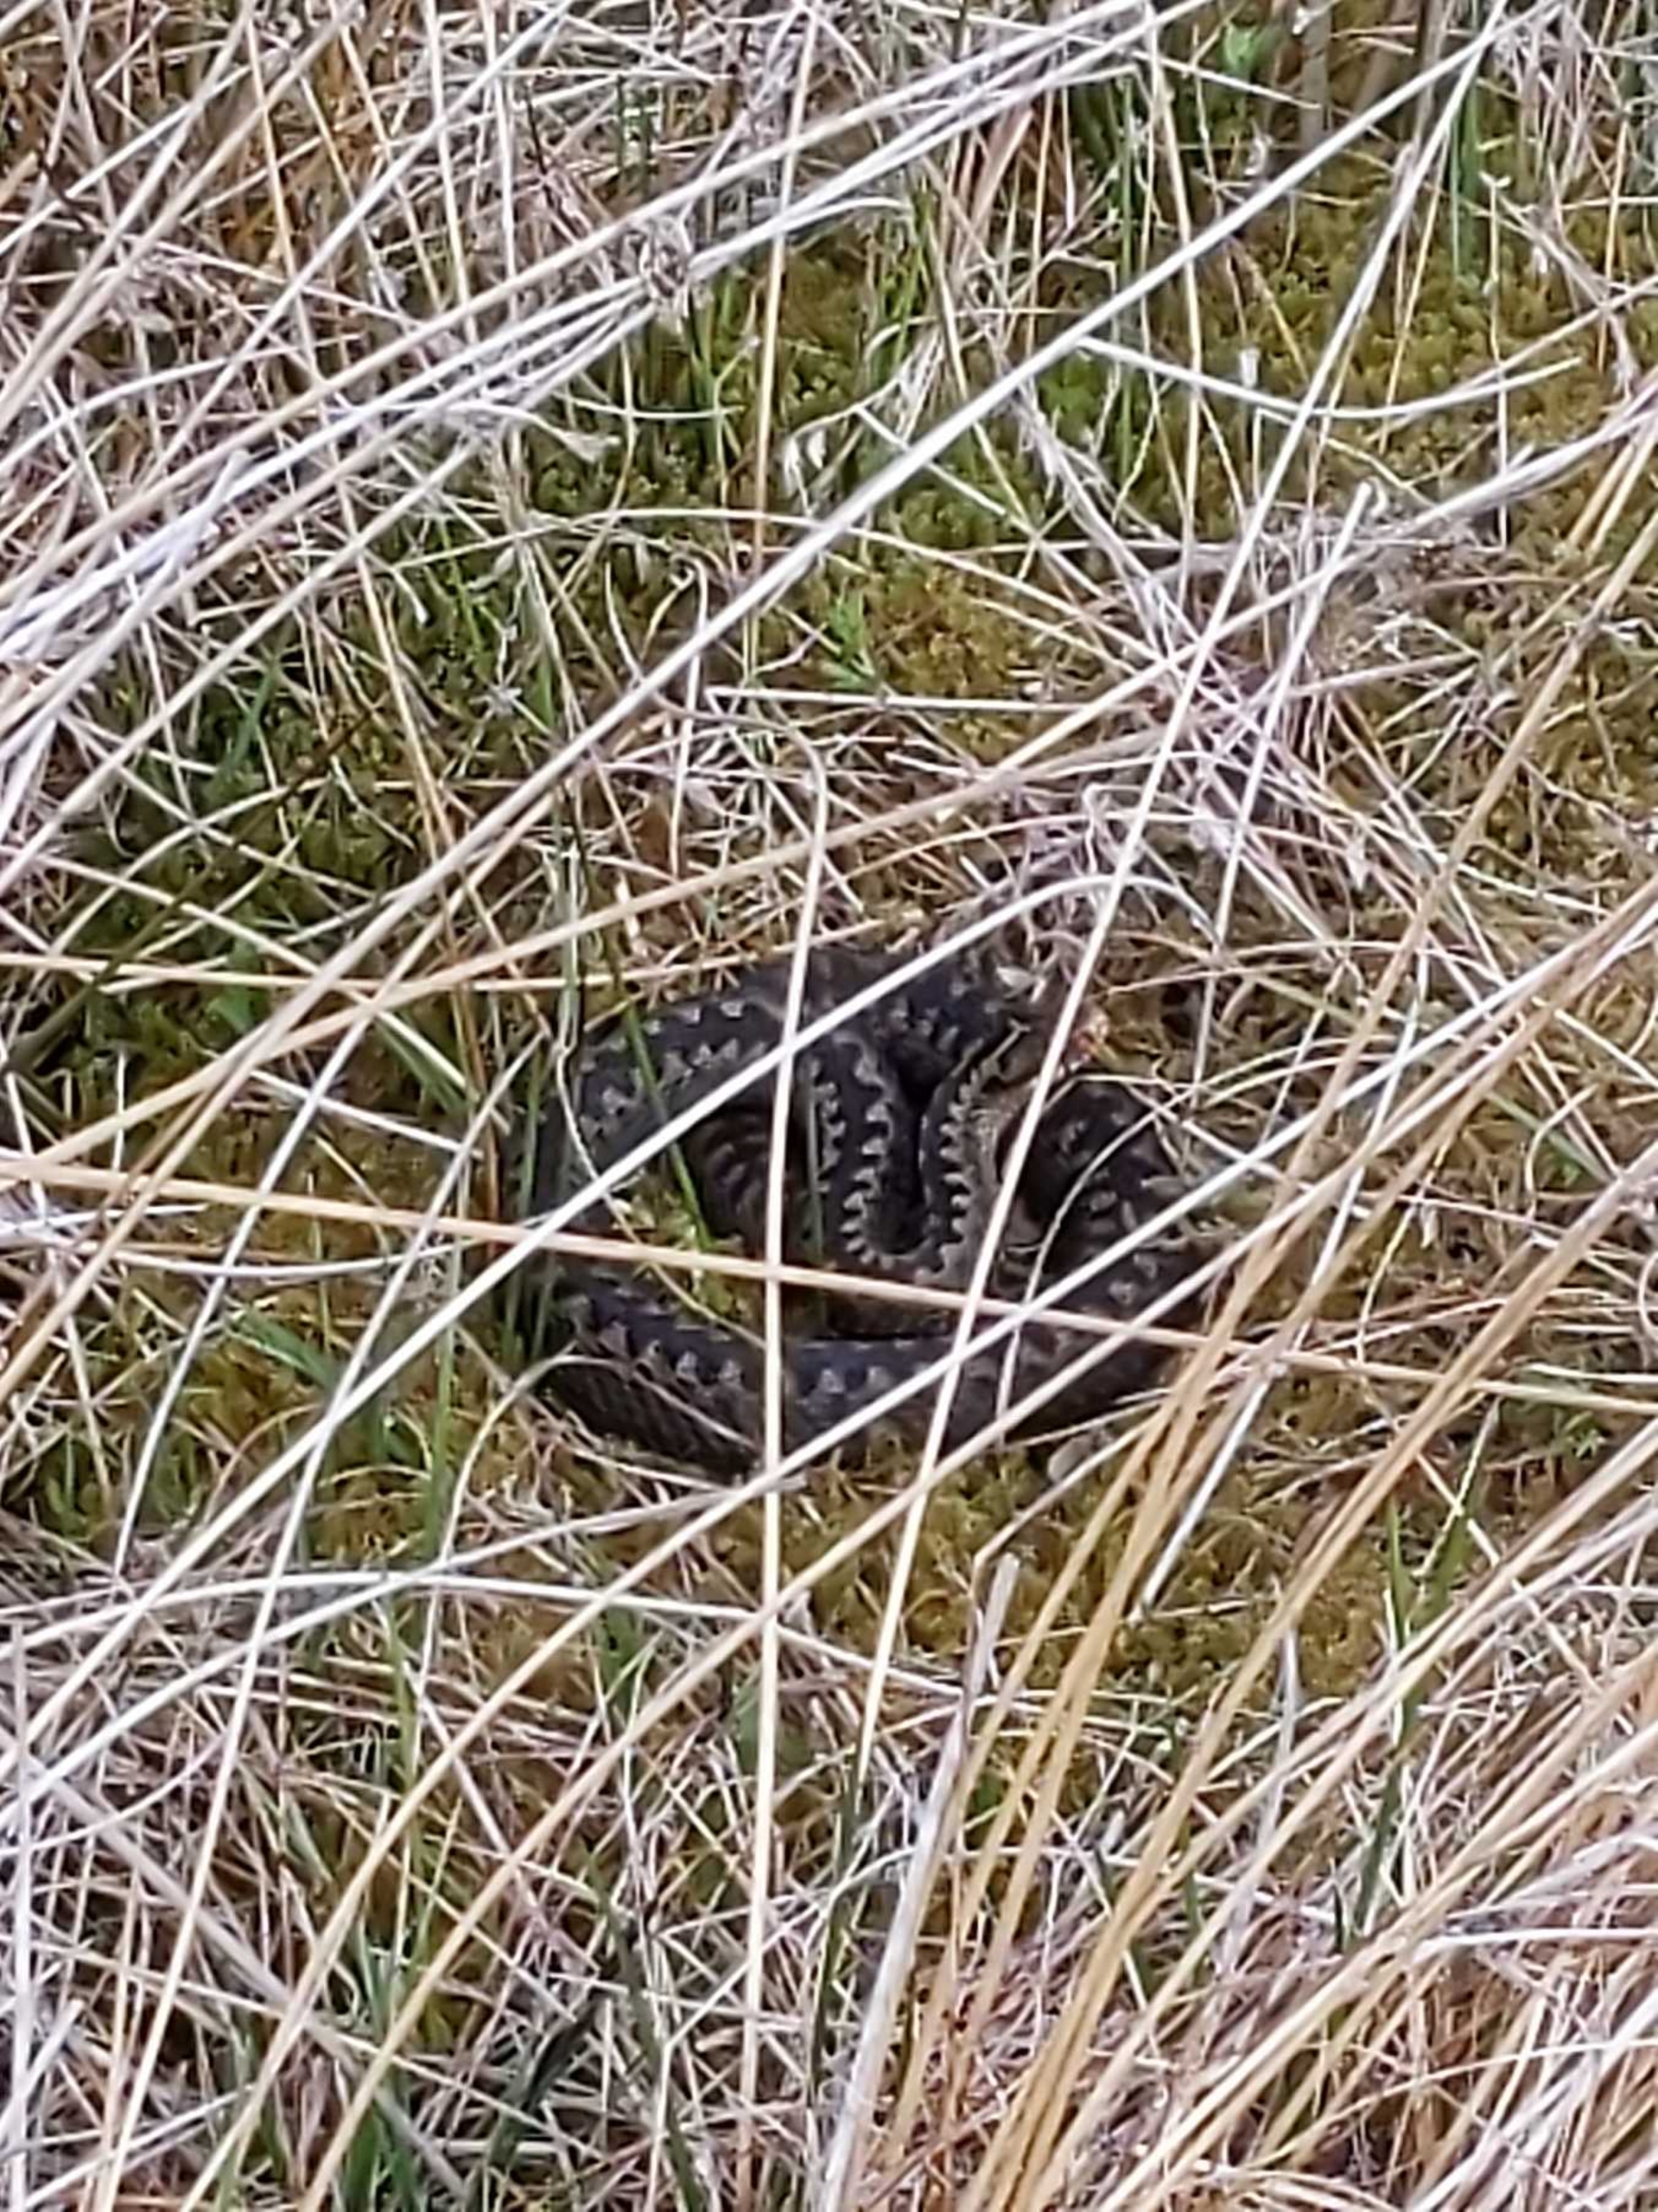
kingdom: Animalia
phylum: Chordata
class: Squamata
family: Viperidae
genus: Vipera
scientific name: Vipera berus
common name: Hugorm
